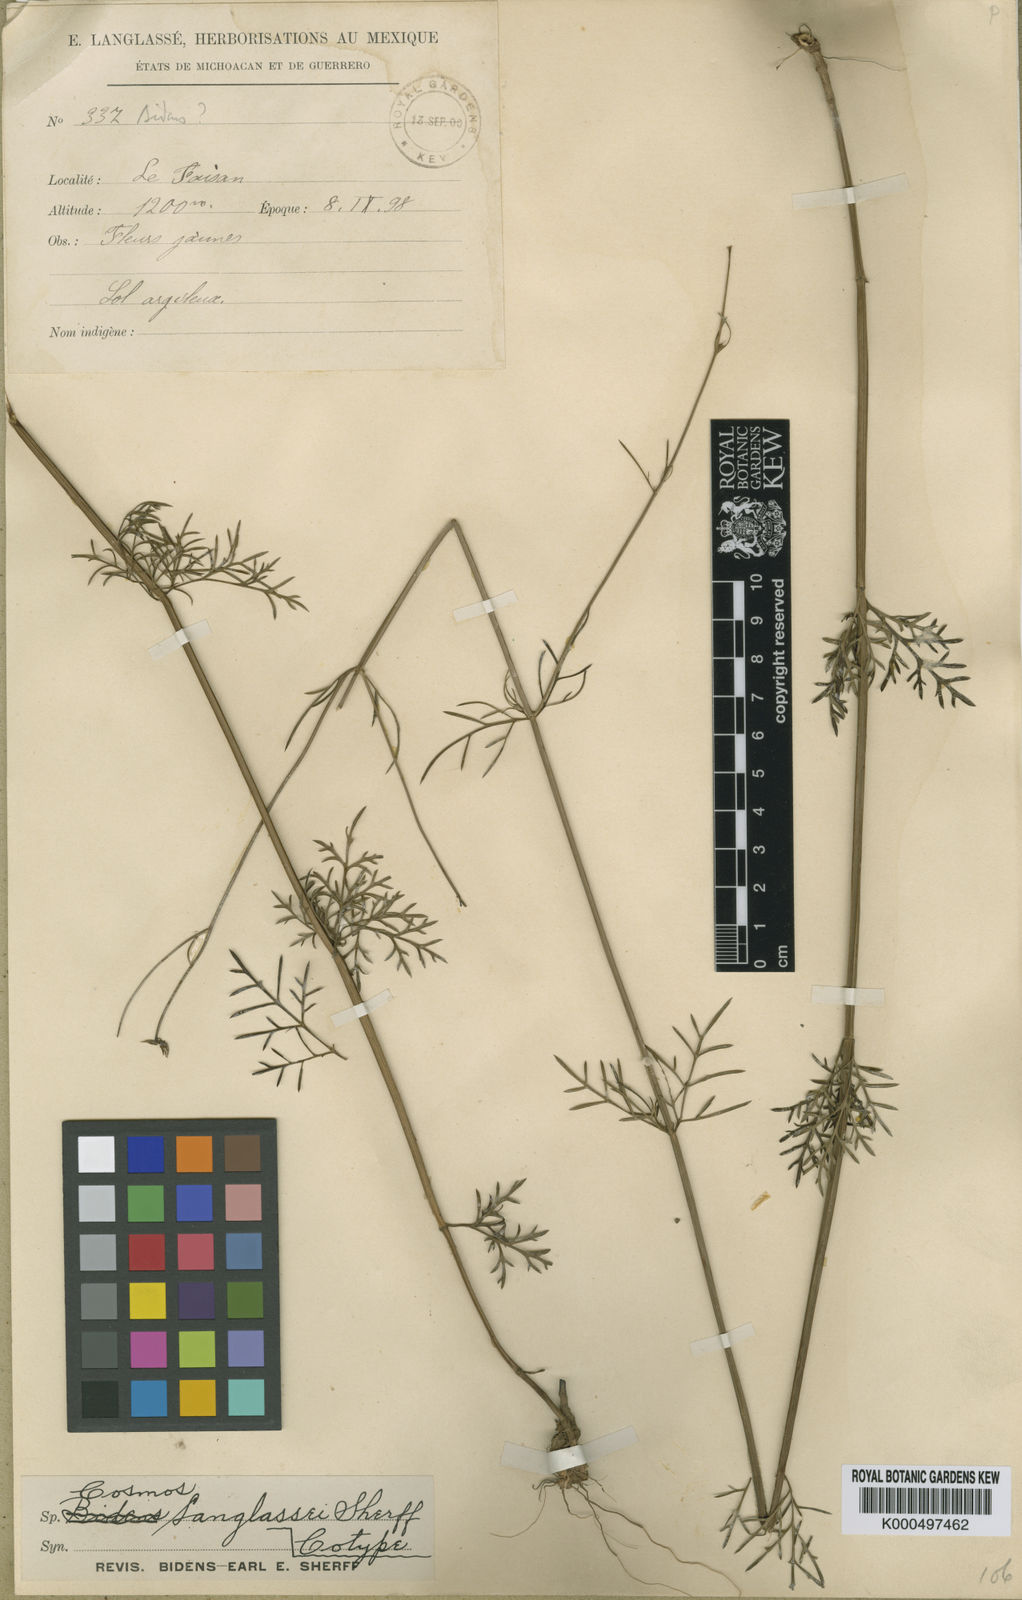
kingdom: Plantae
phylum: Tracheophyta
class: Magnoliopsida
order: Asterales
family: Asteraceae
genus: Bidens
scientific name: Bidens acrifolia
